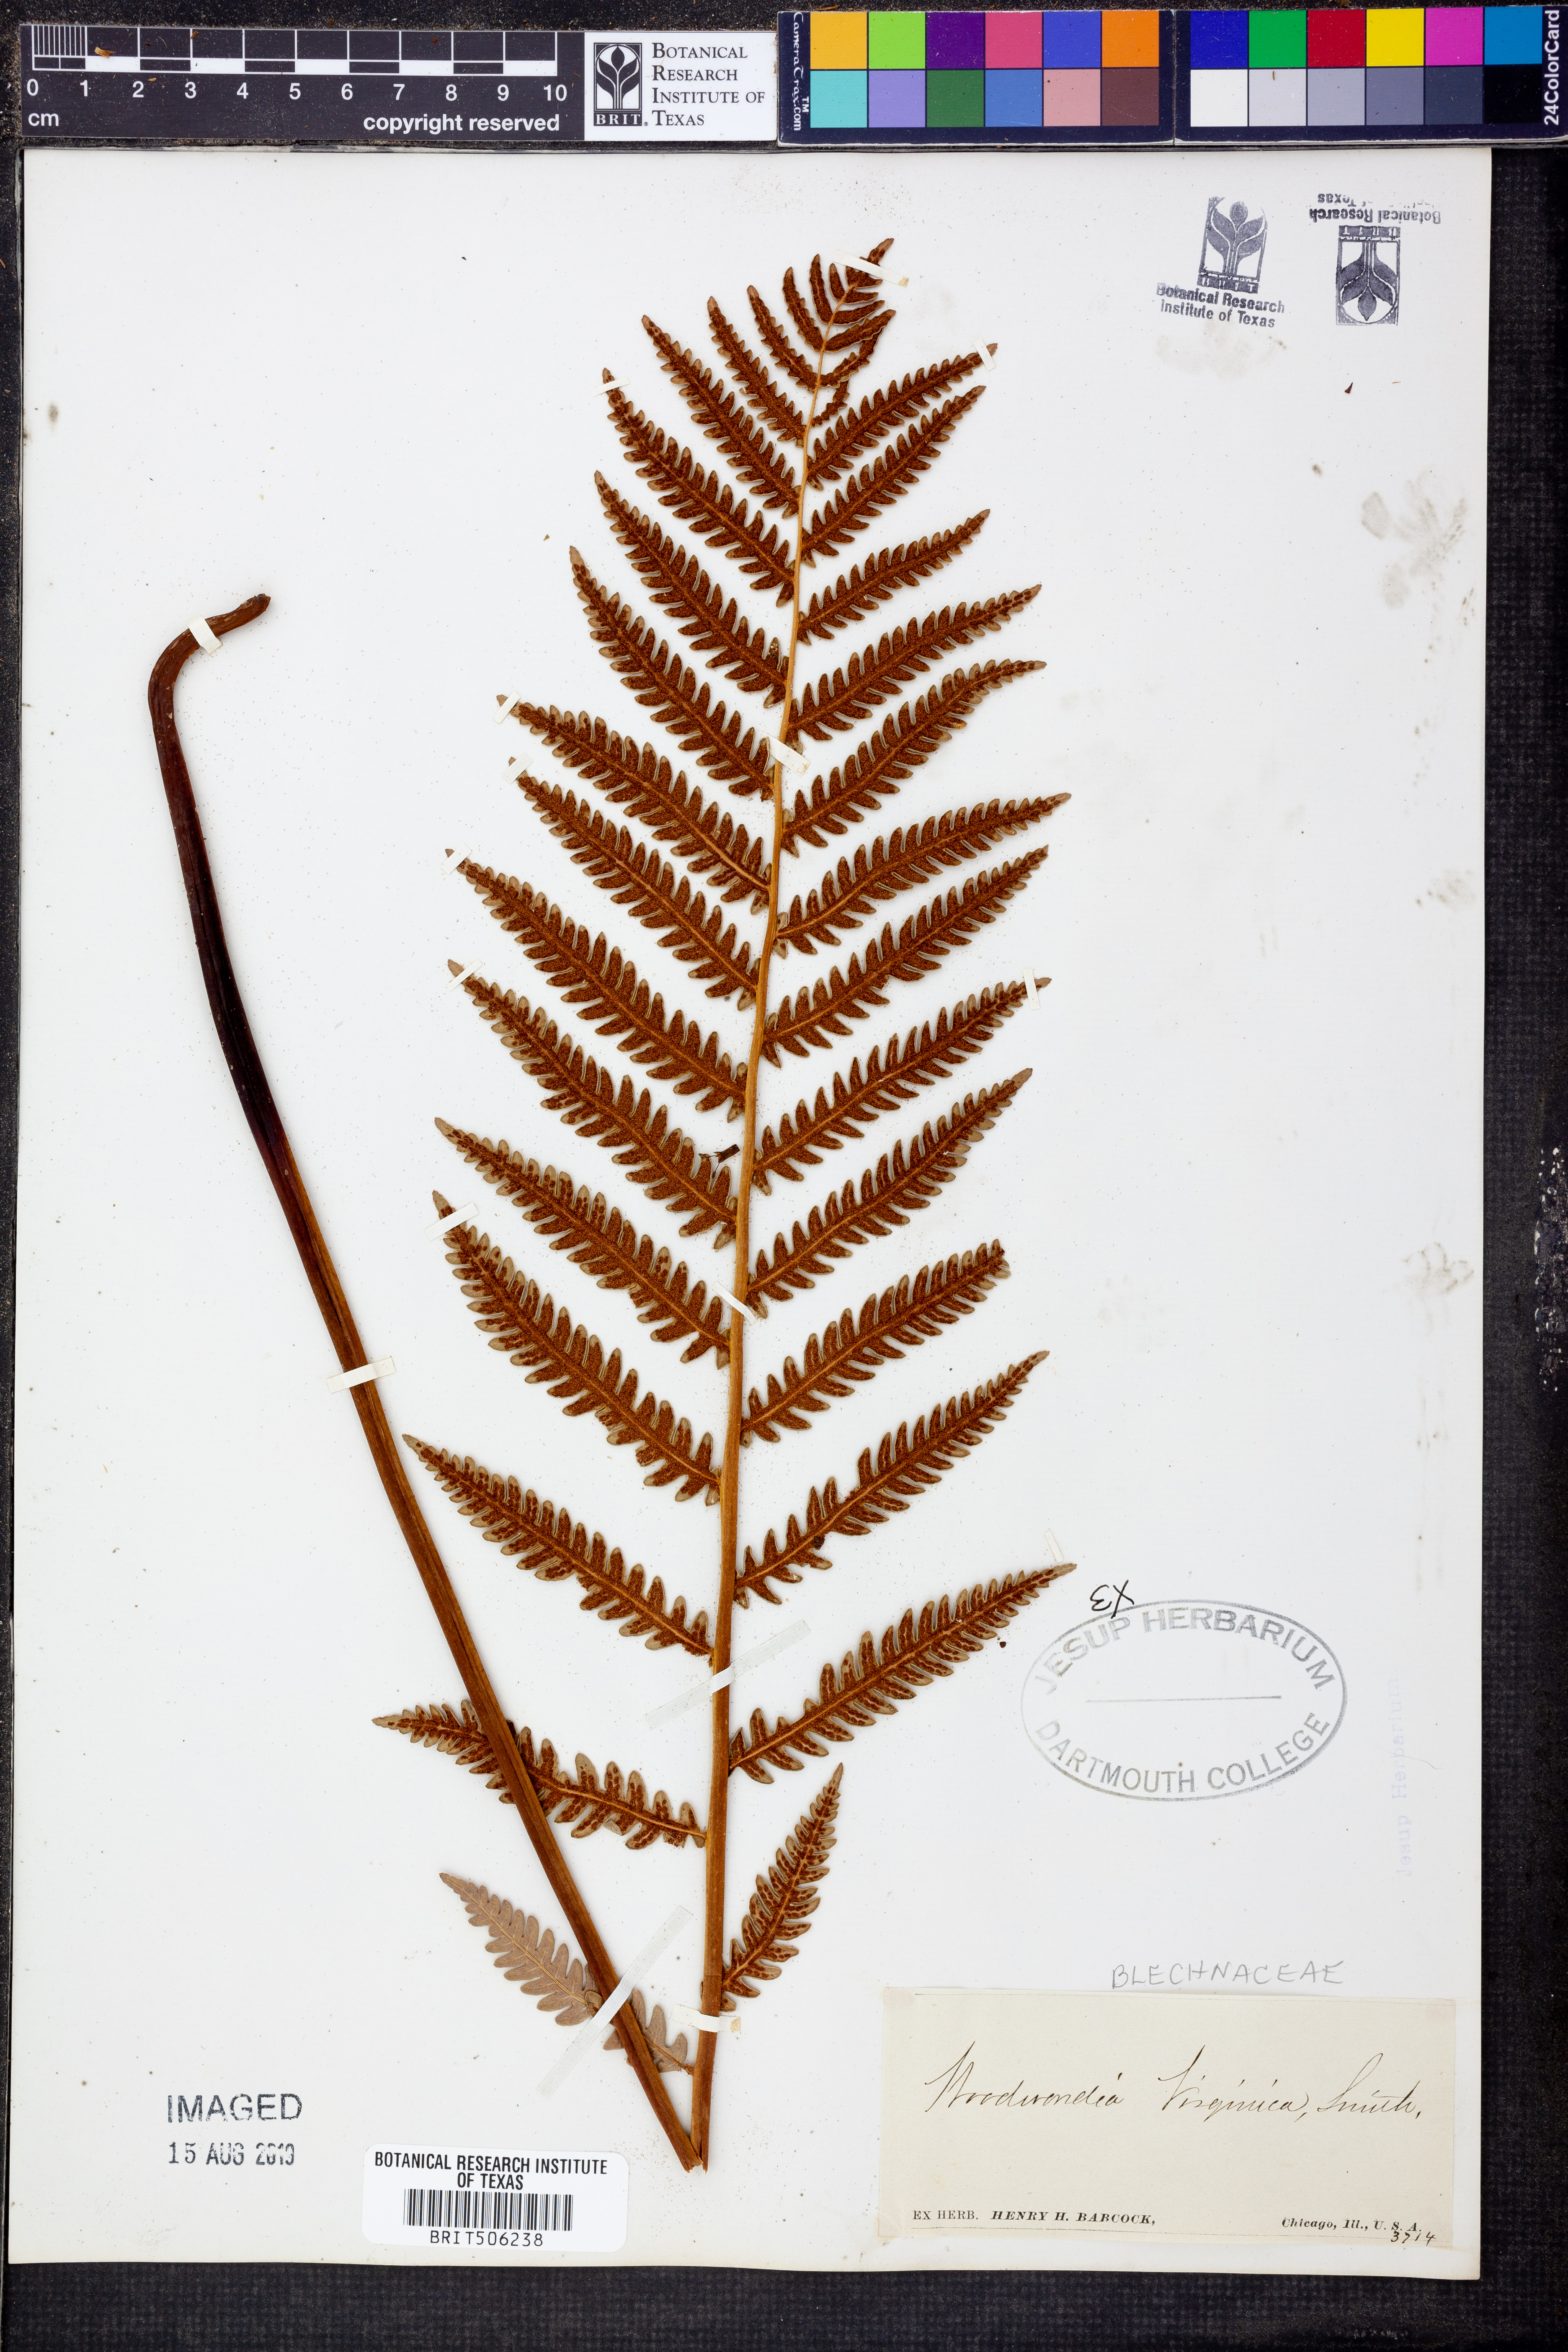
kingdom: Plantae
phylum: Tracheophyta
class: Polypodiopsida
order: Polypodiales
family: Blechnaceae
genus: Anchistea
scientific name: Anchistea virginica
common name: Virginia chain fern
